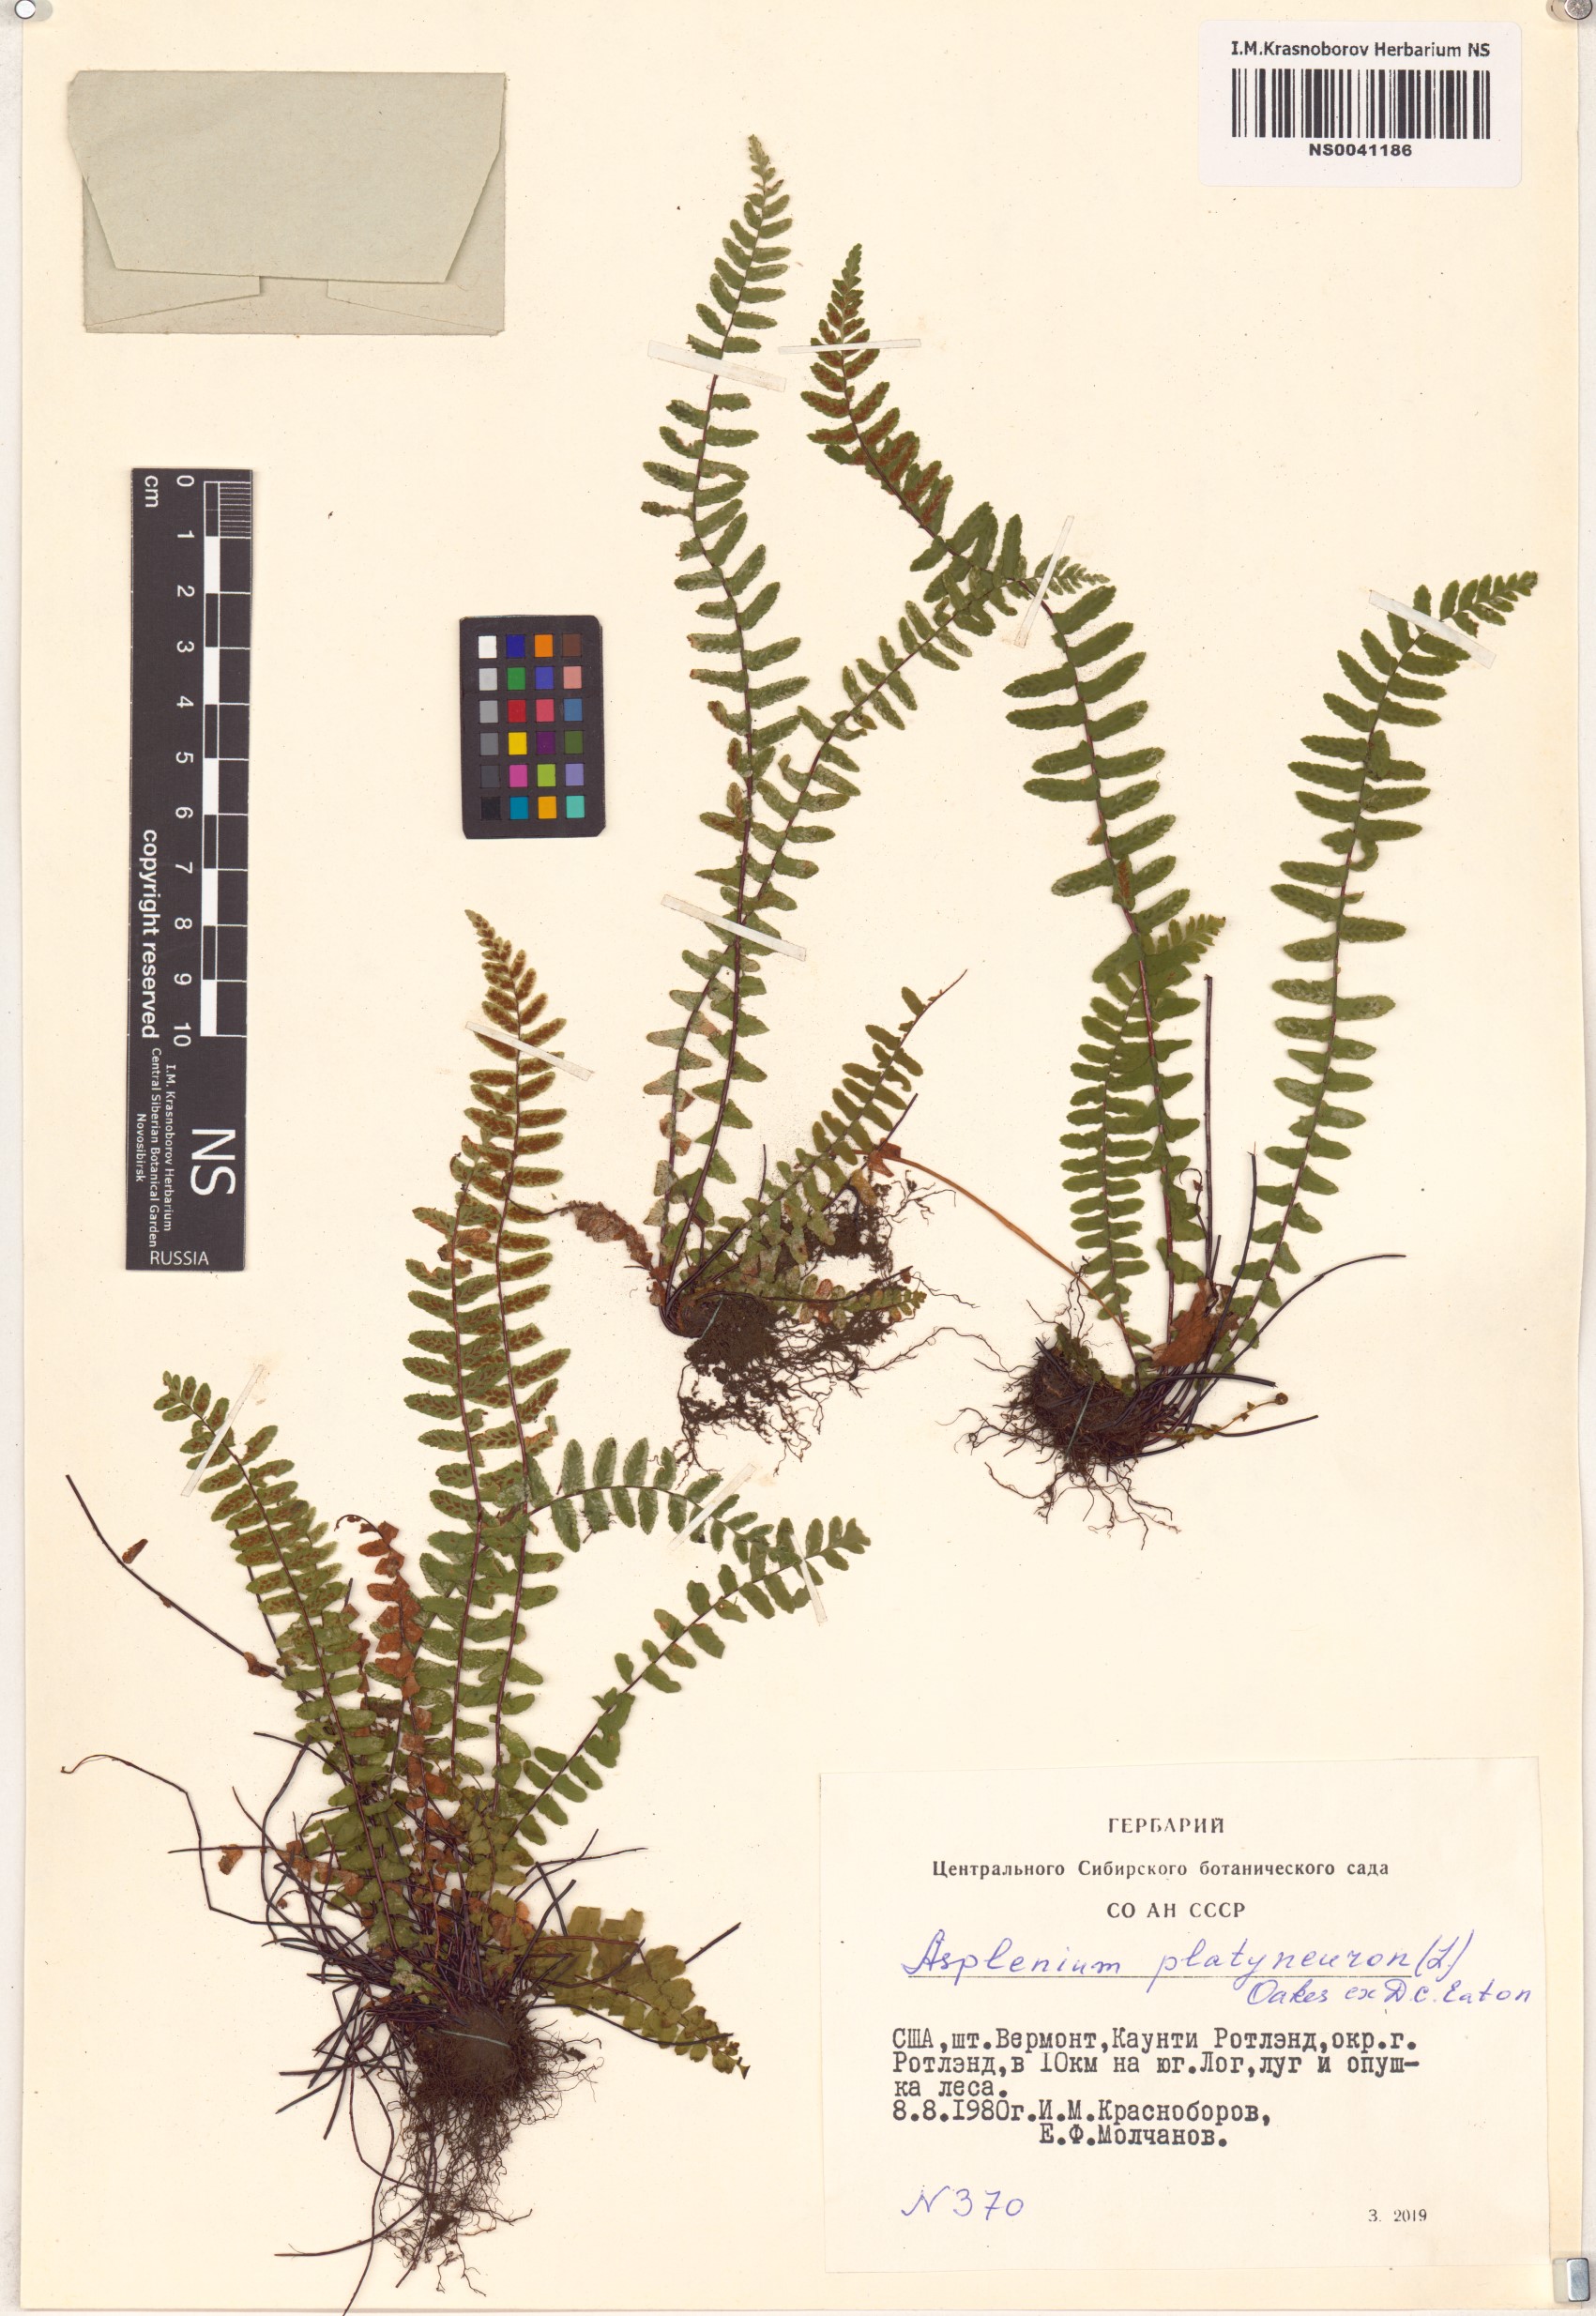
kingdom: Plantae
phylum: Tracheophyta
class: Polypodiopsida
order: Polypodiales
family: Aspleniaceae
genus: Asplenium
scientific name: Asplenium platyneuron
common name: Ebony spleenwort
